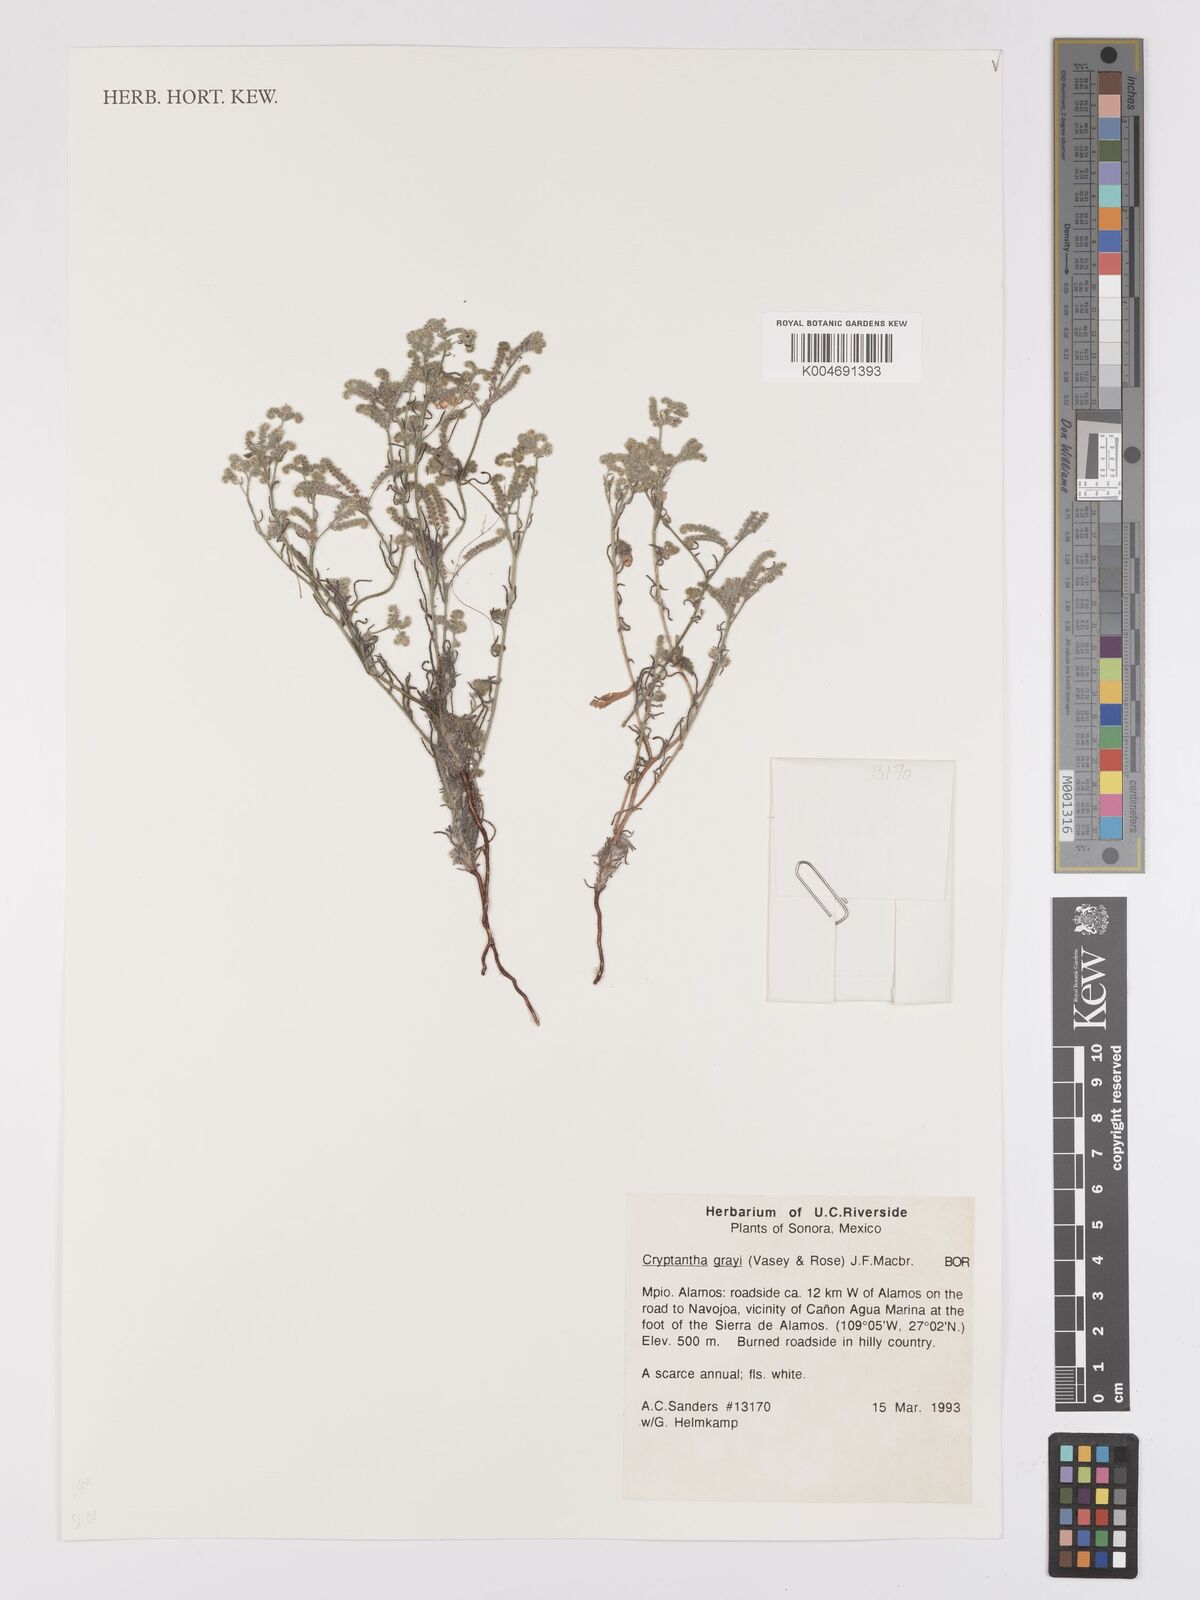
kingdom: Plantae
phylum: Tracheophyta
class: Magnoliopsida
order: Boraginales
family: Boraginaceae
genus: Johnstonella
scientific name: Johnstonella grayi
